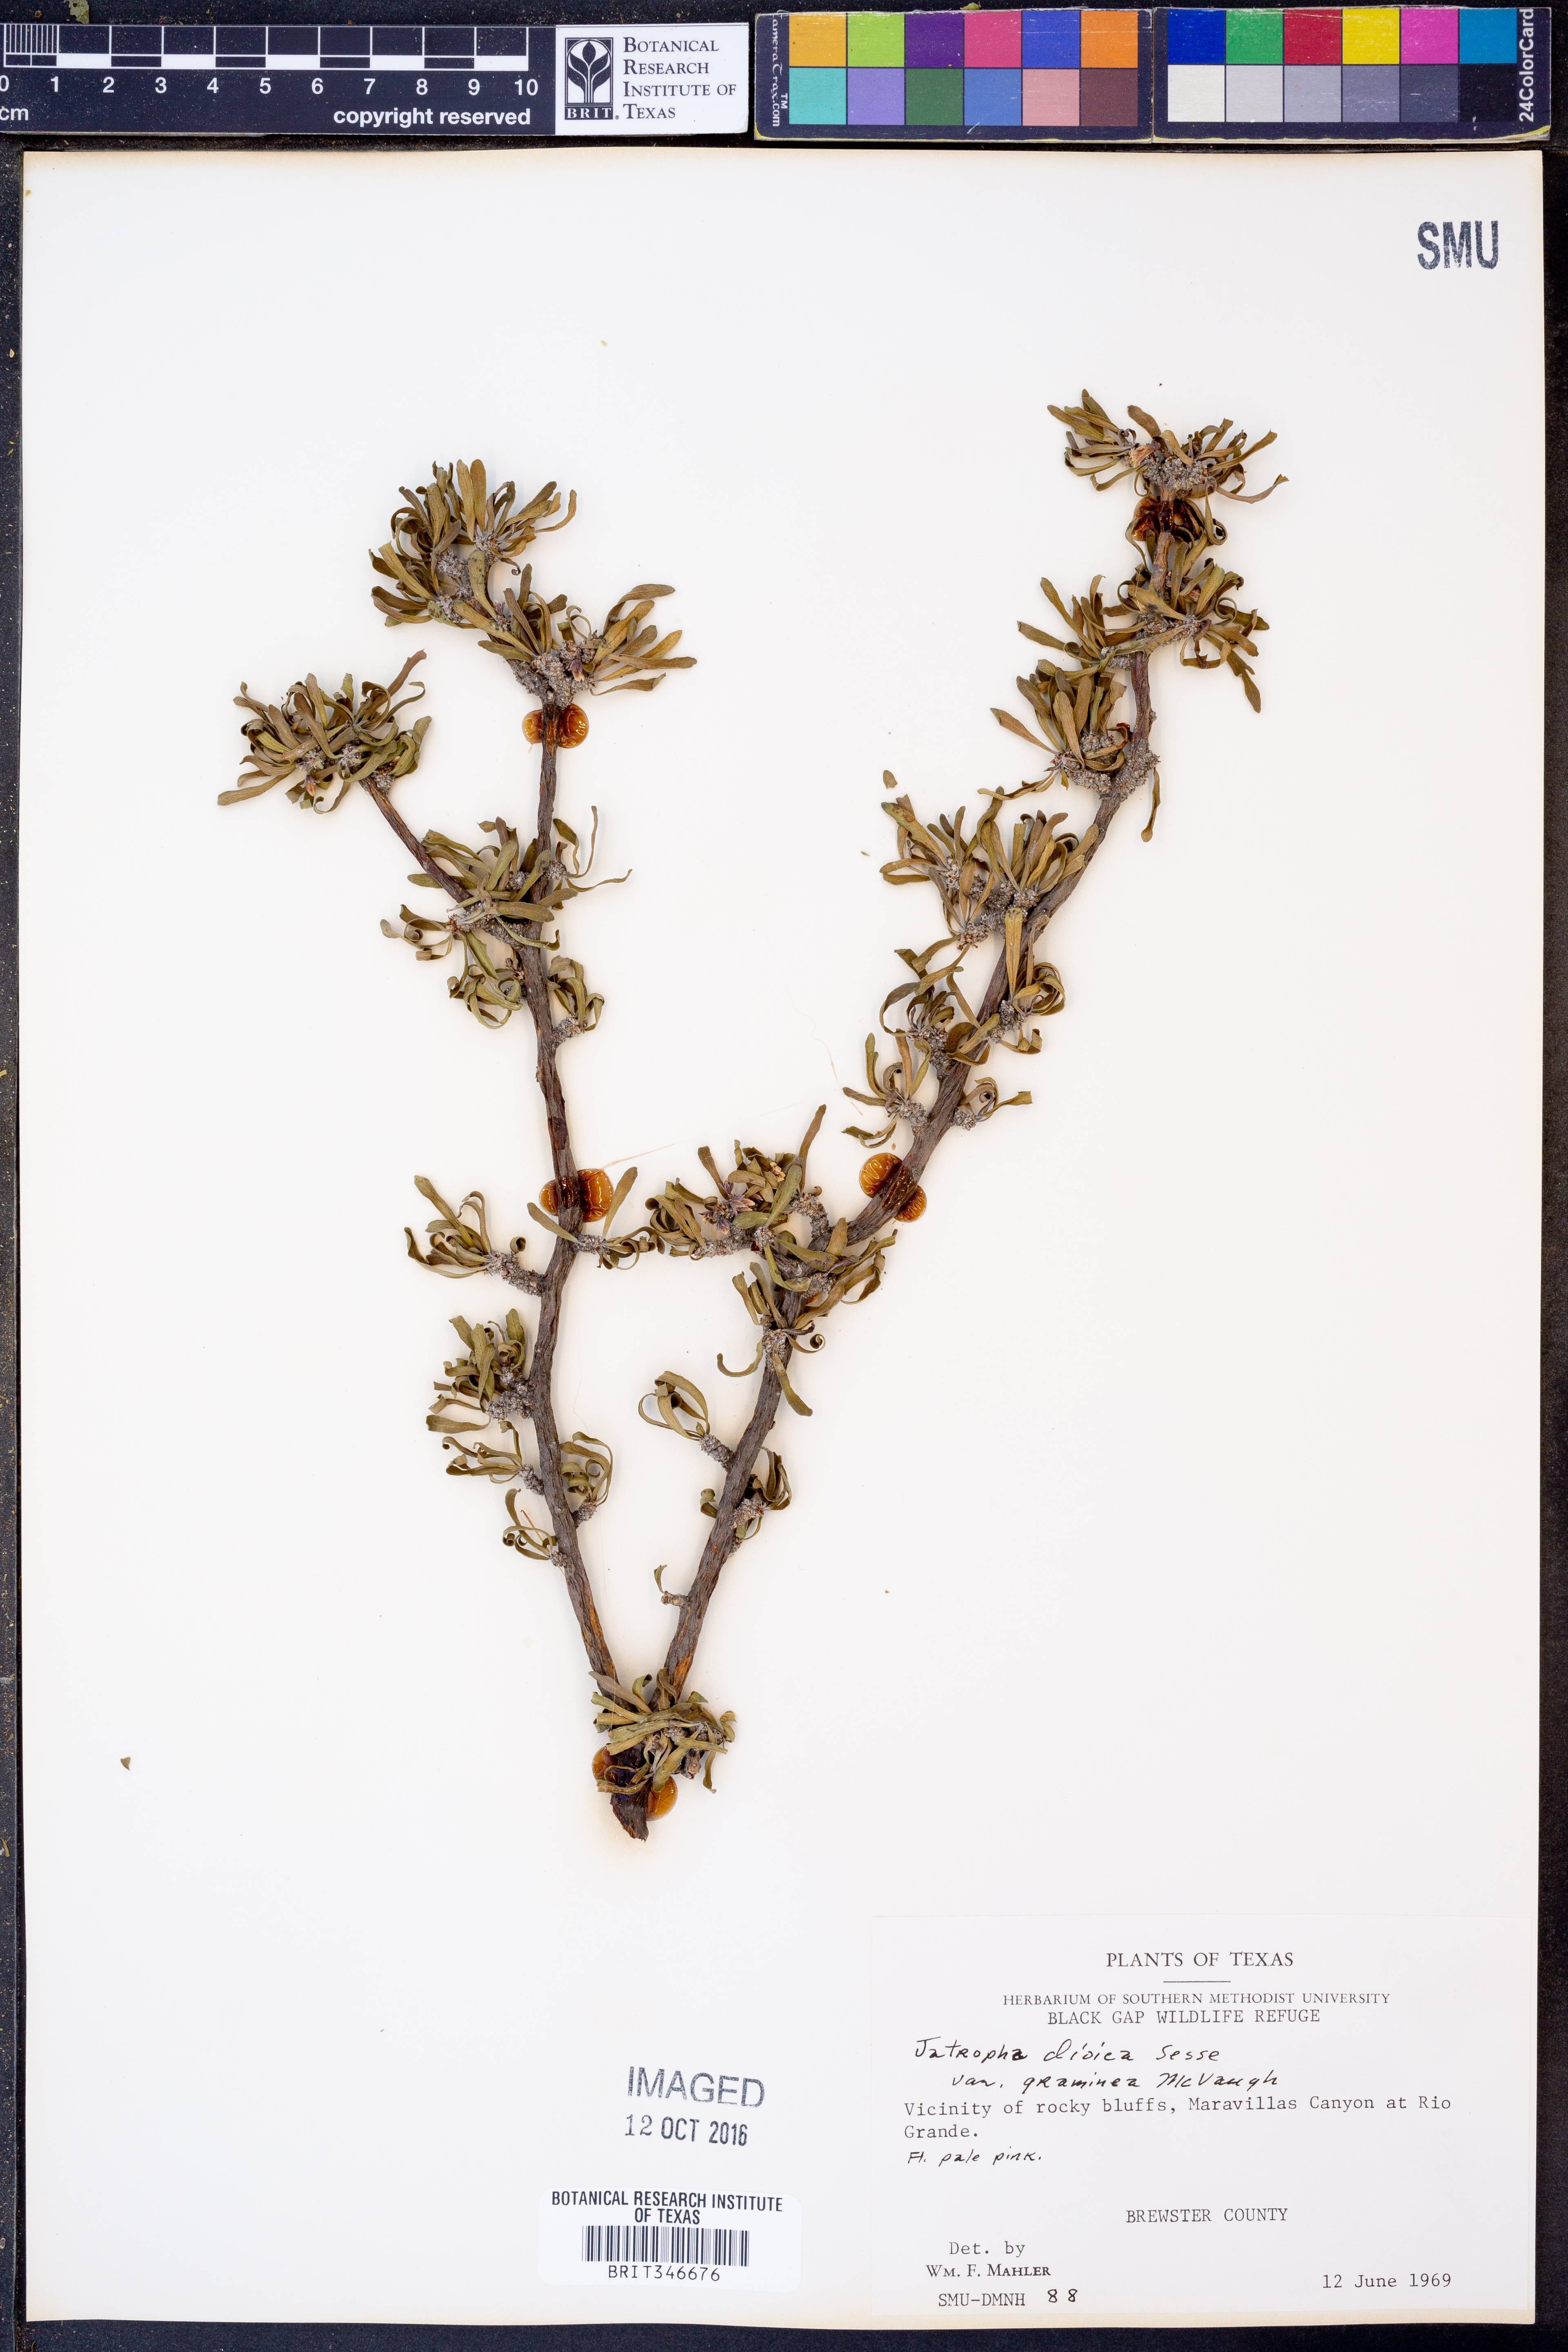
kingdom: Plantae
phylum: Tracheophyta
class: Magnoliopsida
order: Malpighiales
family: Euphorbiaceae
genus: Jatropha
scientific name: Jatropha dioica
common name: Leatherstem
